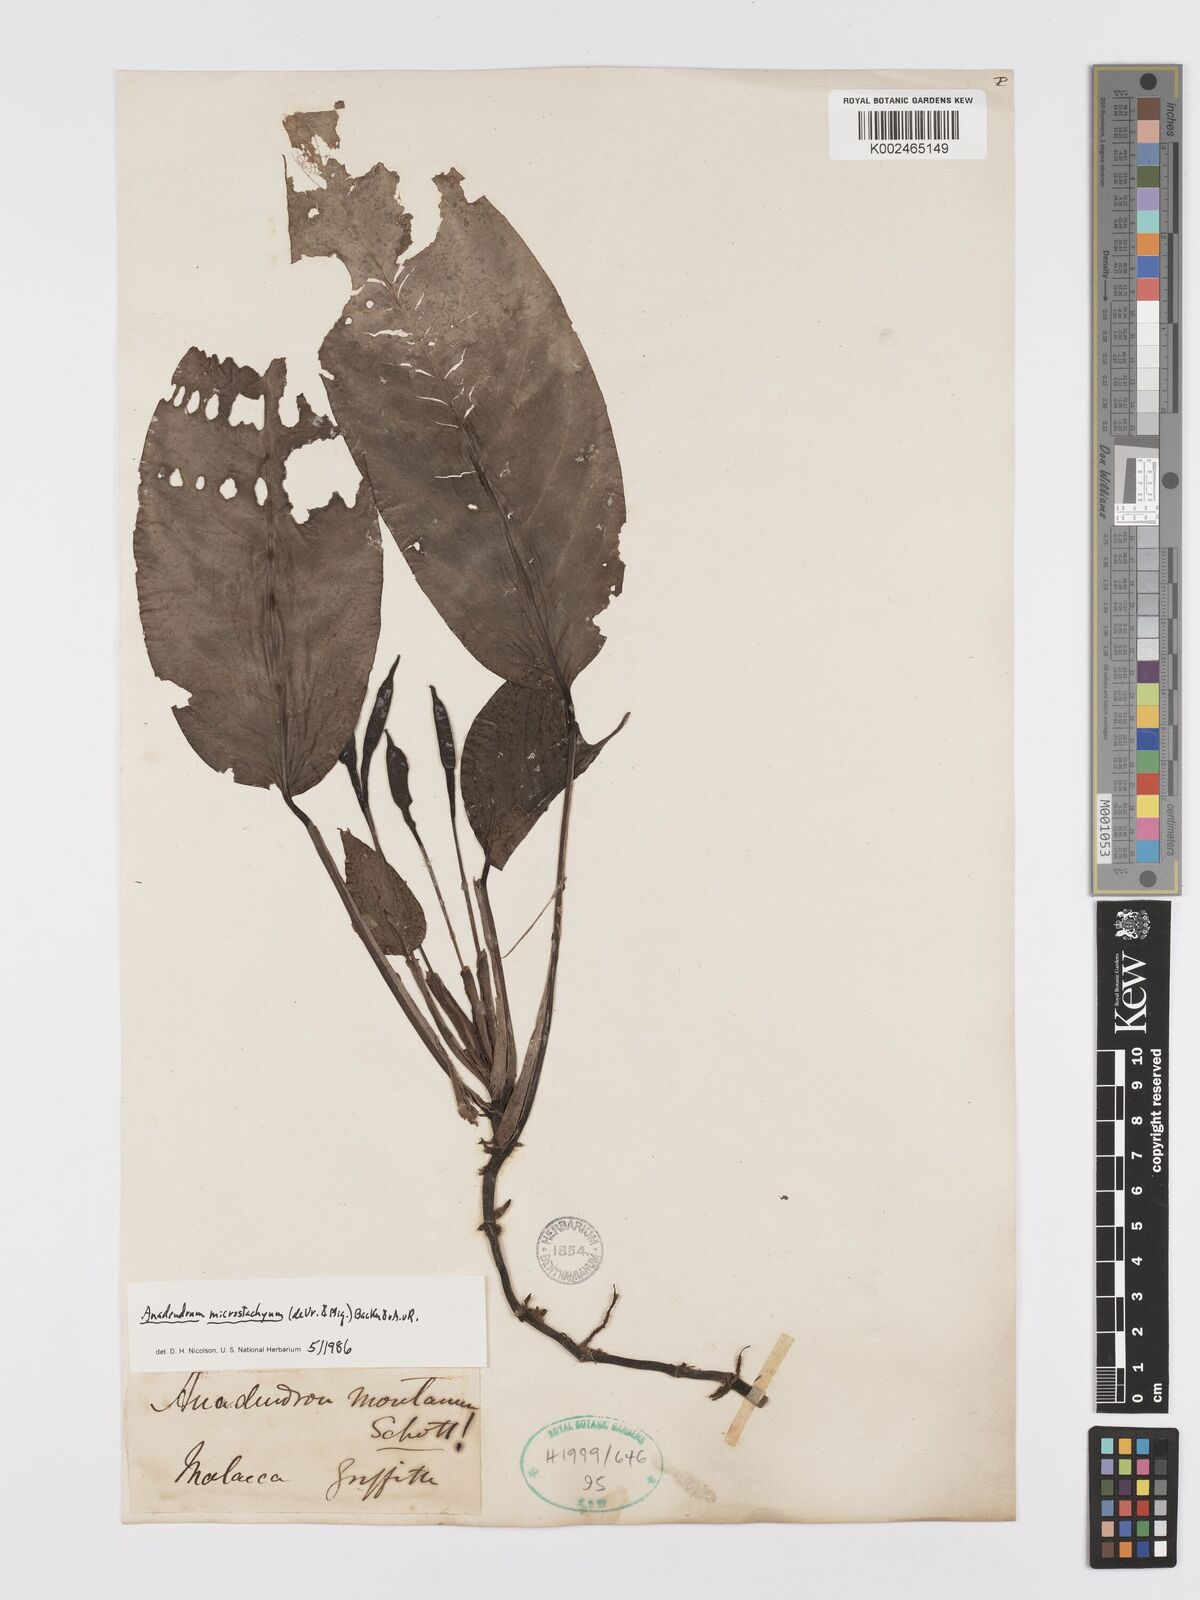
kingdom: Plantae
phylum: Tracheophyta
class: Liliopsida
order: Alismatales
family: Araceae
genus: Anadendrum
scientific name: Anadendrum microstachyum
